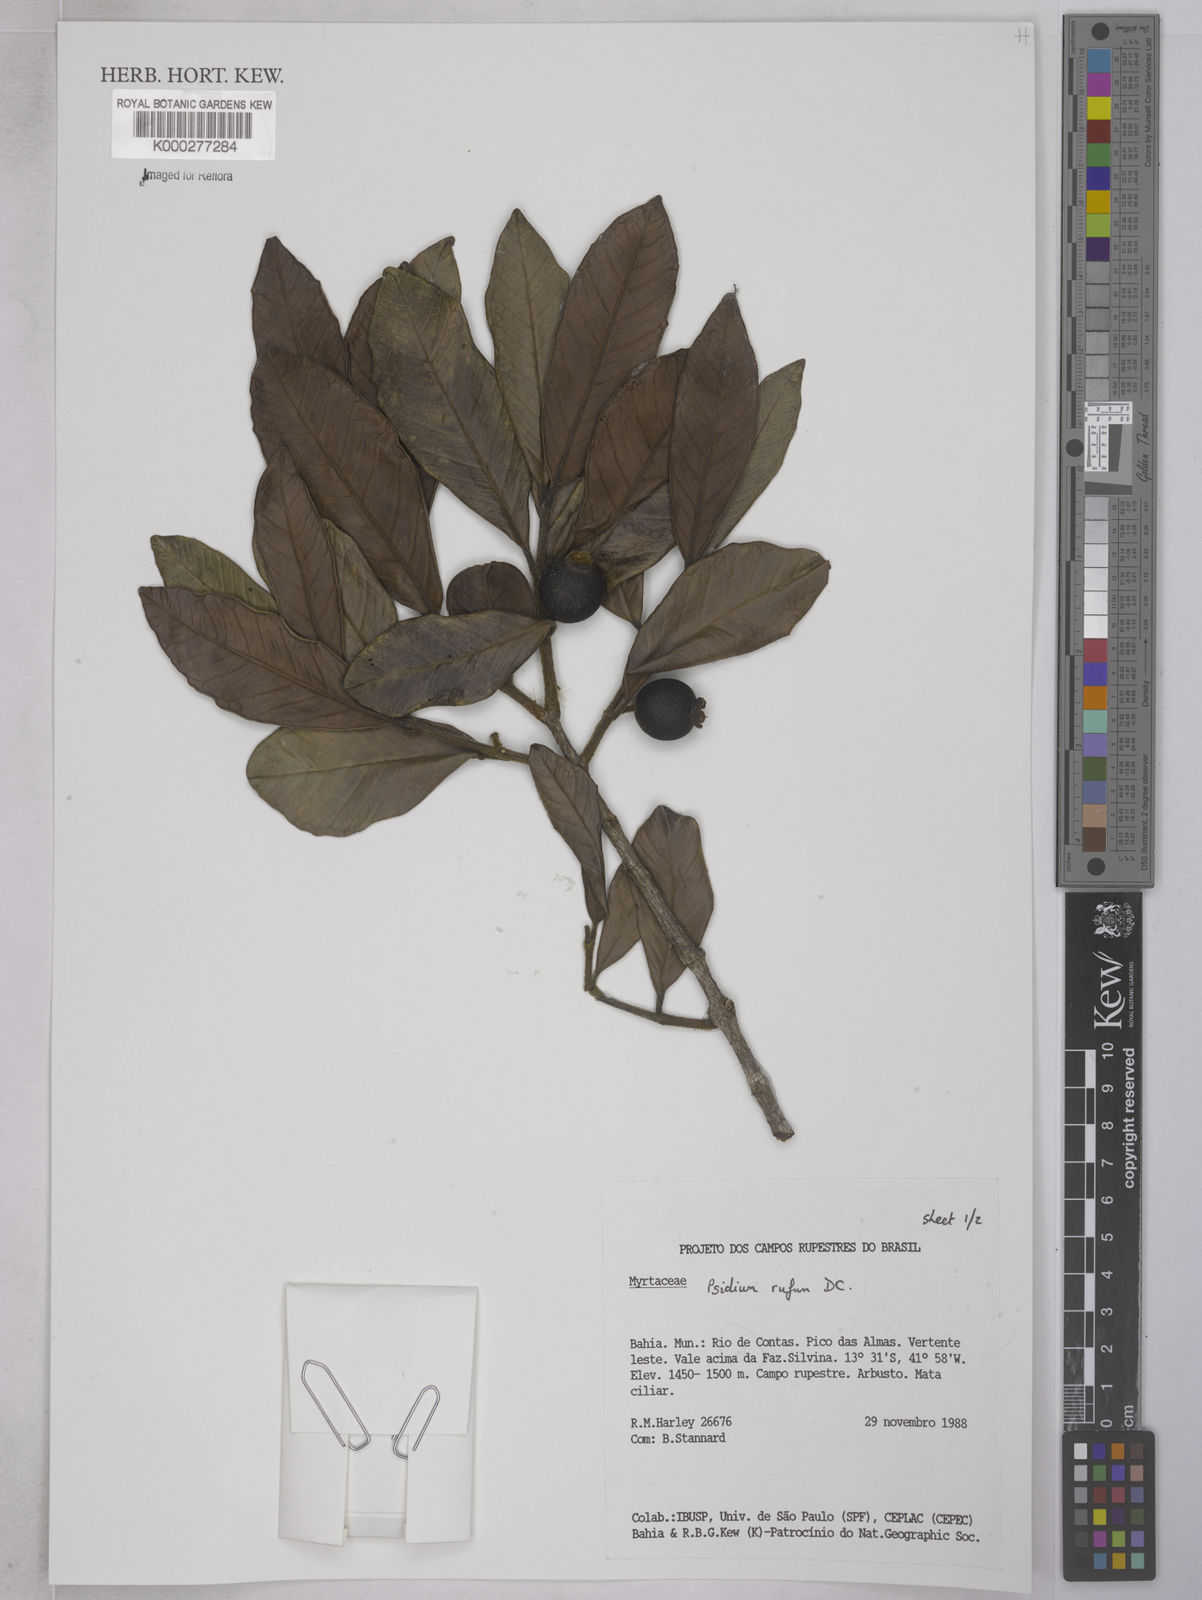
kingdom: Plantae
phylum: Tracheophyta
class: Magnoliopsida
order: Myrtales
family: Myrtaceae
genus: Psidium
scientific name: Psidium rufum
